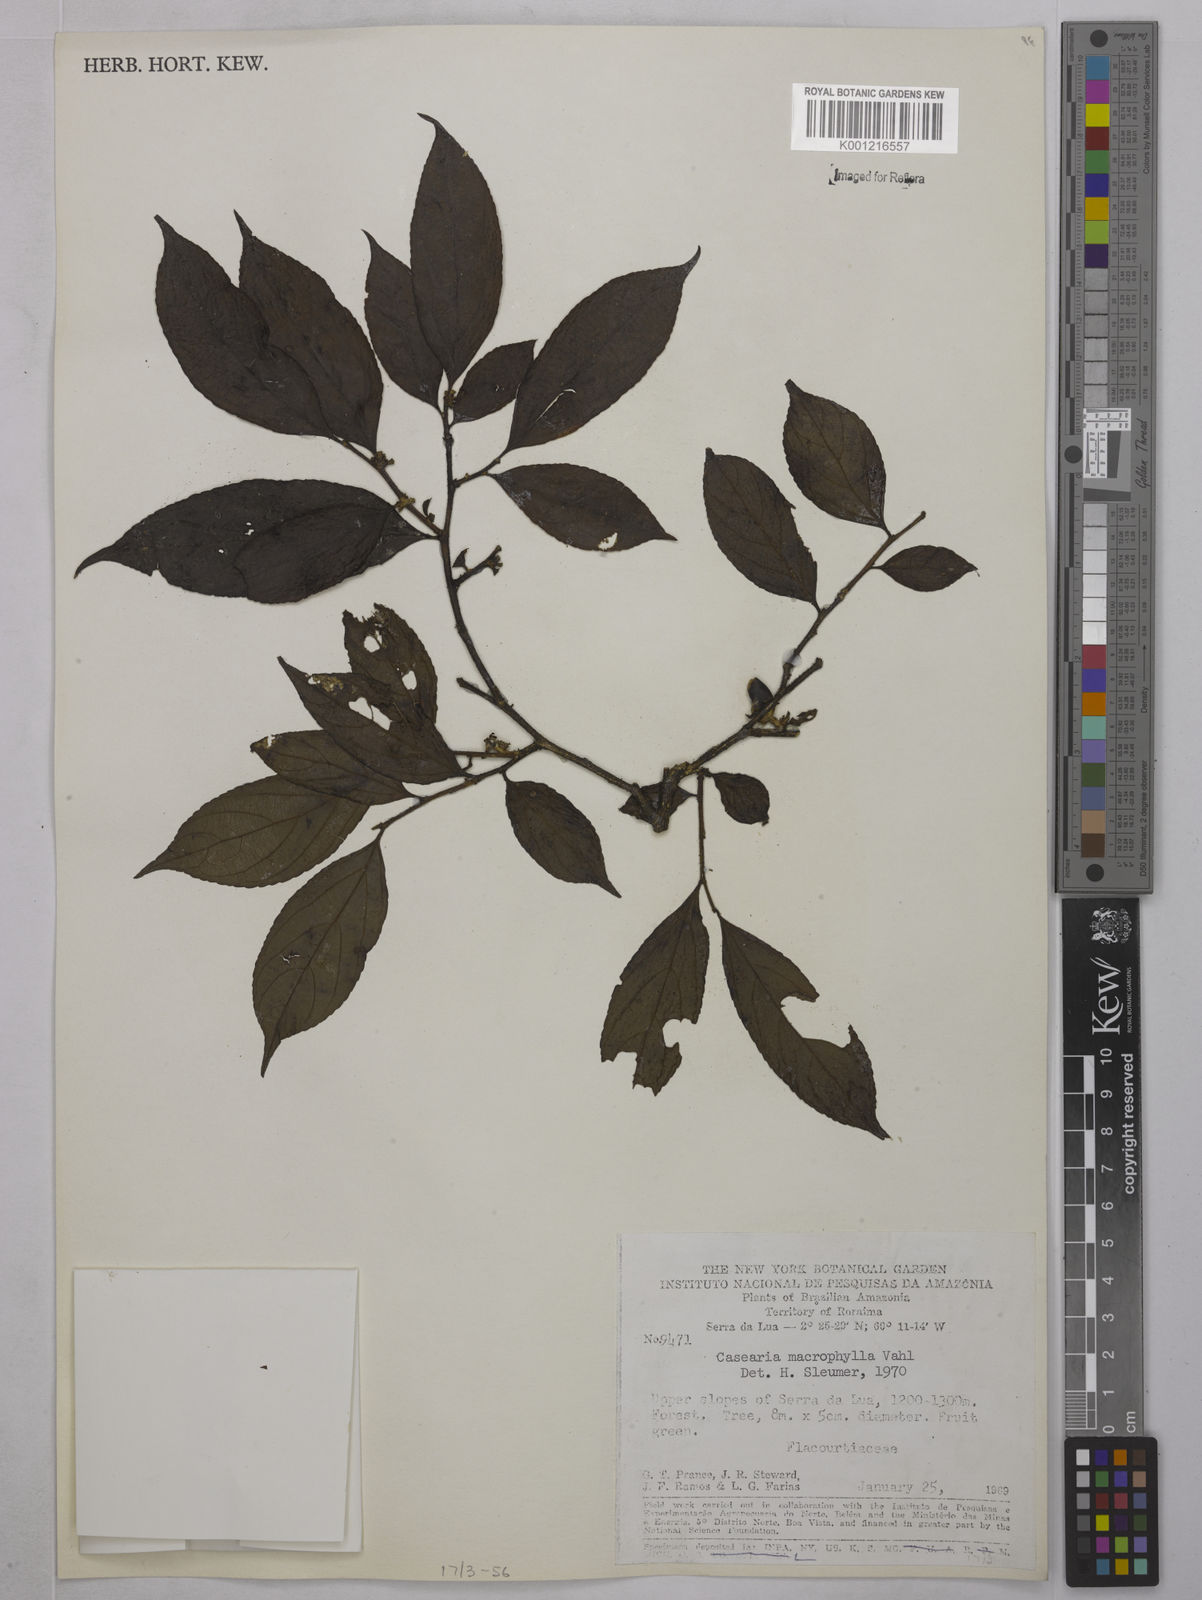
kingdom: Plantae
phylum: Tracheophyta
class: Magnoliopsida
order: Malpighiales
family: Salicaceae
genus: Casearia
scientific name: Casearia pitumba
